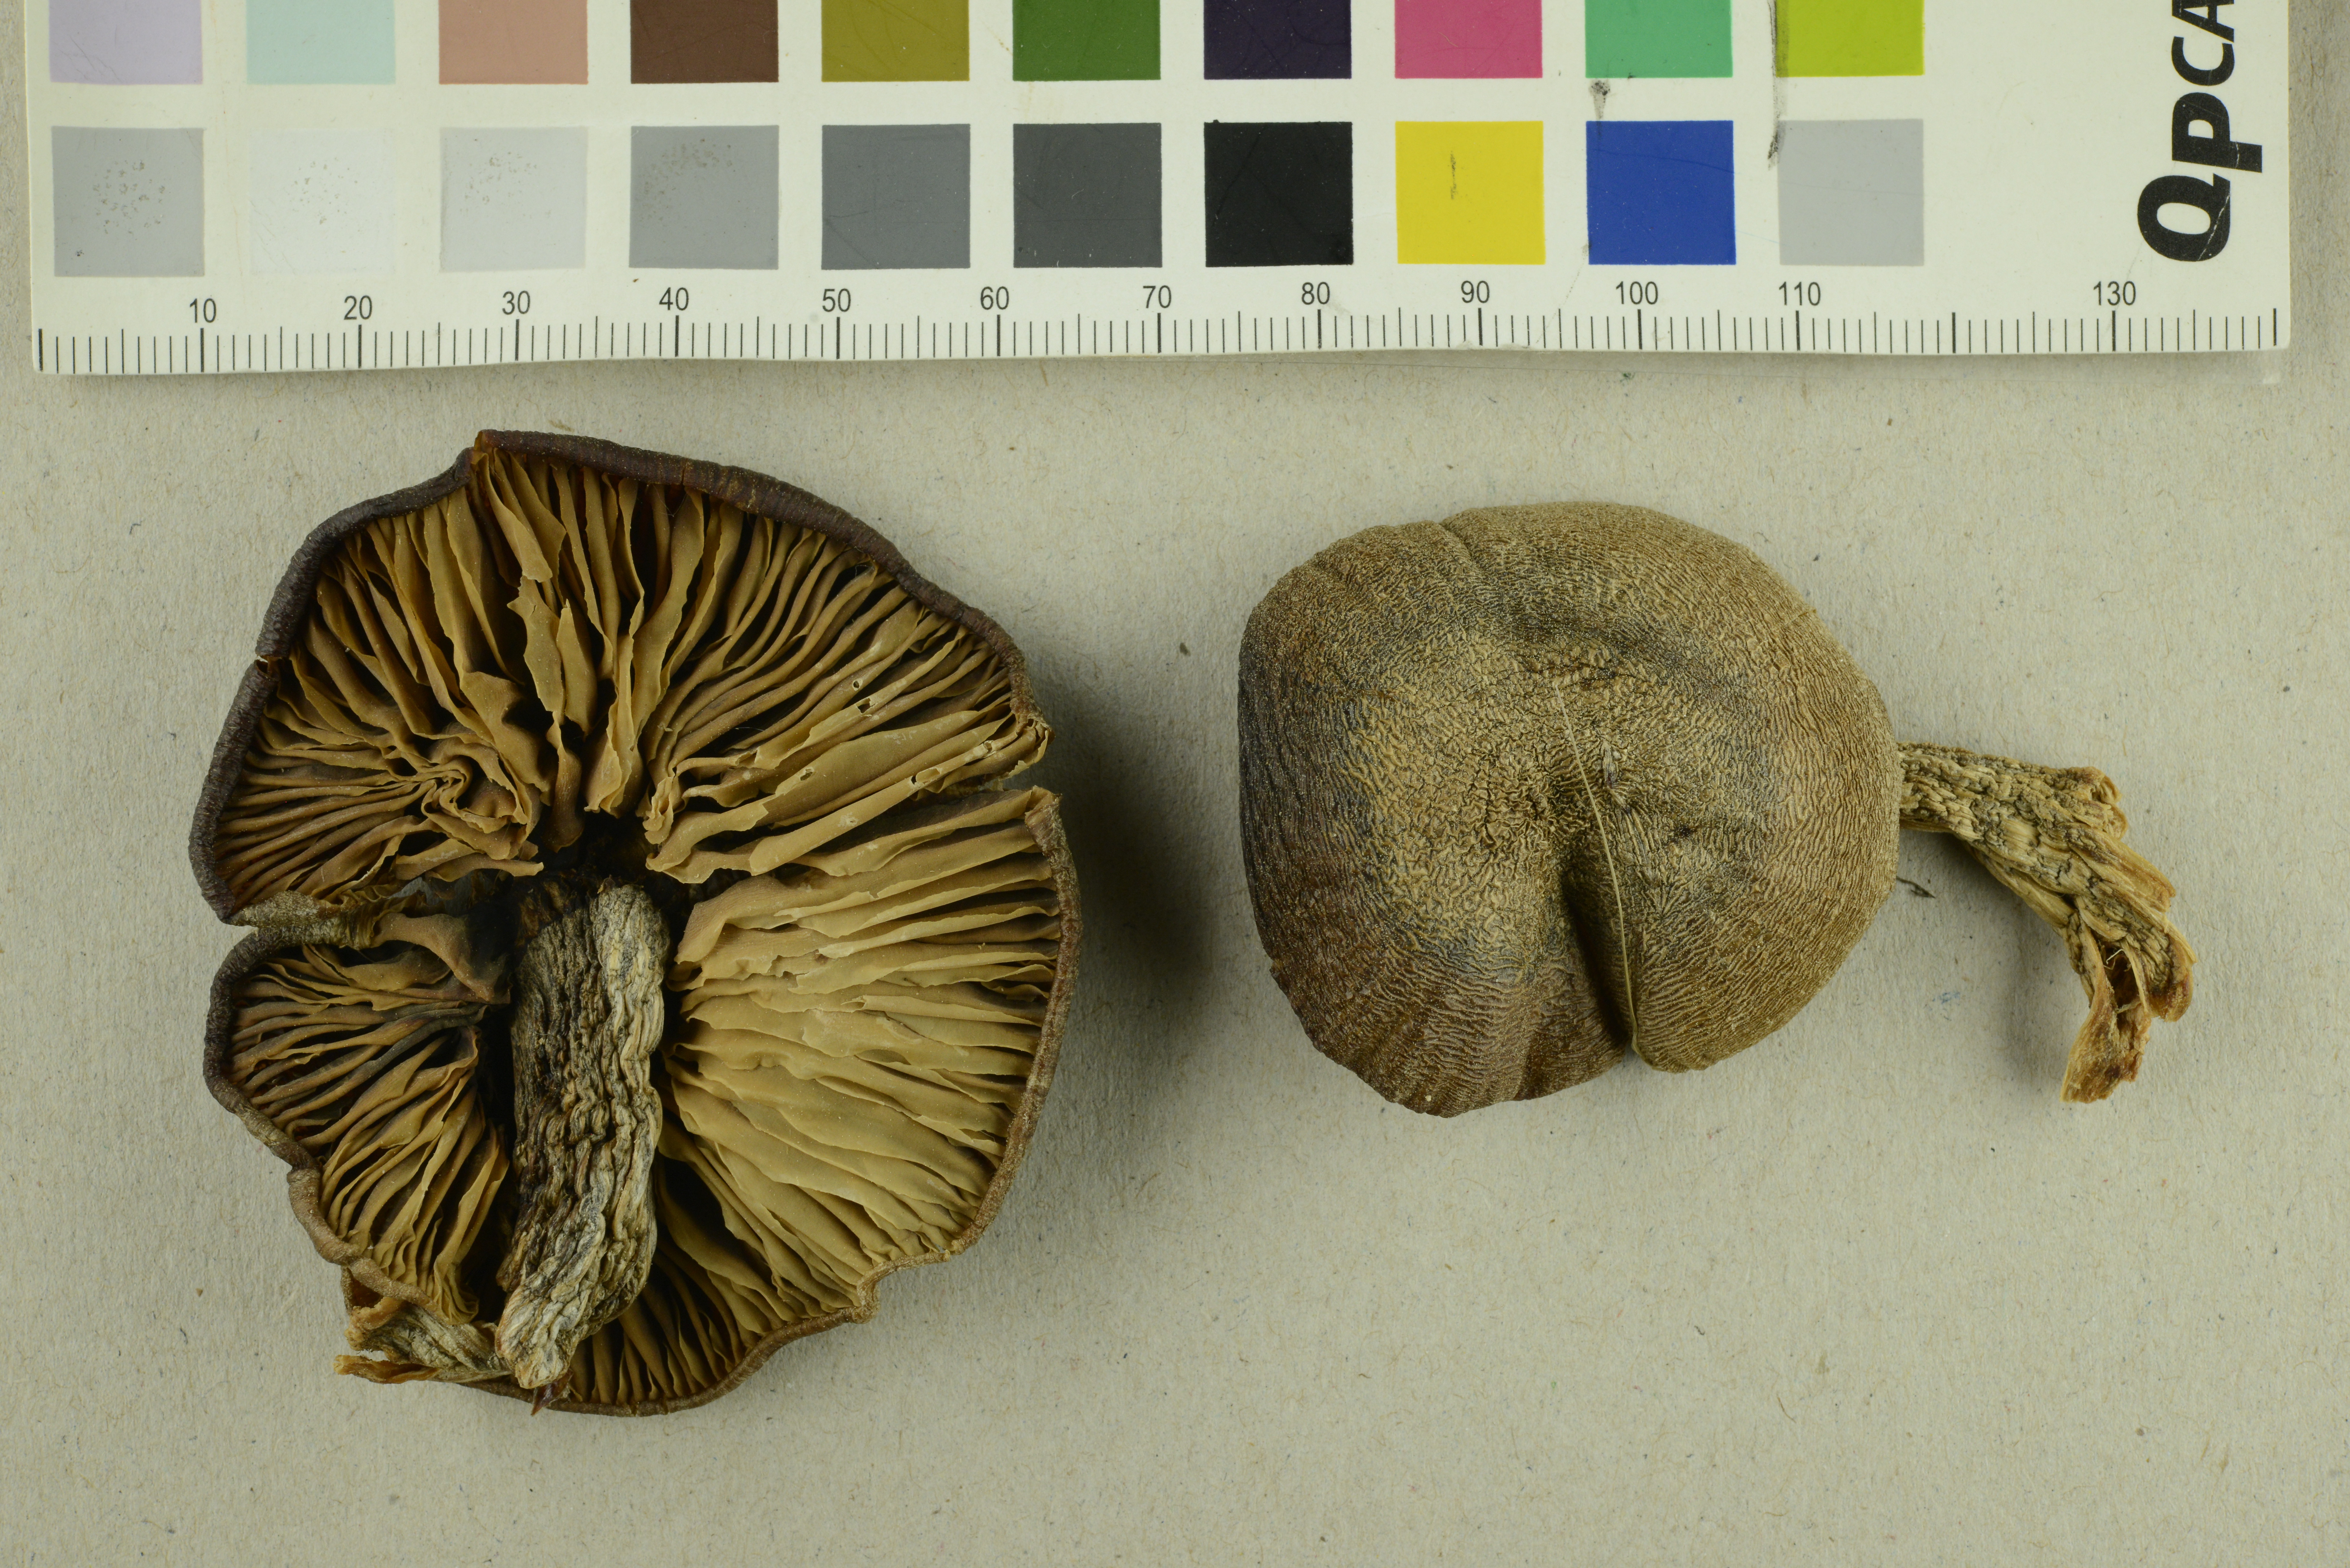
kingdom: Fungi
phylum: Basidiomycota
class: Agaricomycetes
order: Agaricales
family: Entolomataceae
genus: Entoloma
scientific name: Entoloma clypeatum
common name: Shield pinkgill
